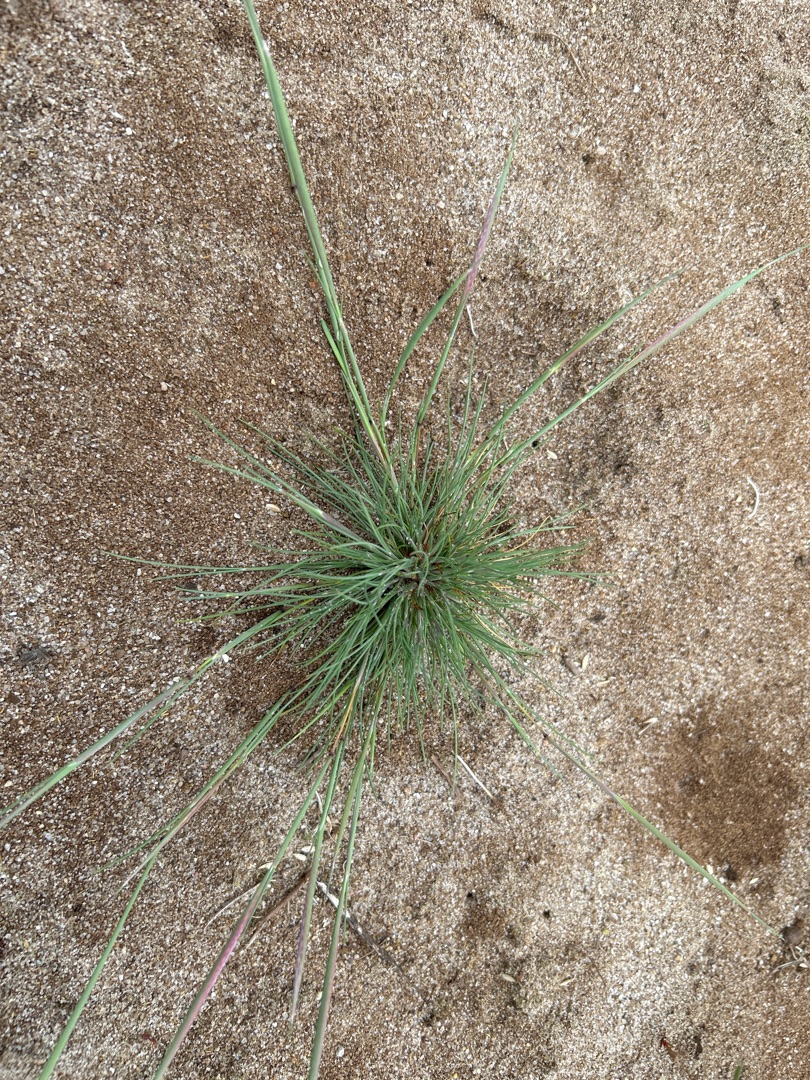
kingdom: Plantae
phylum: Tracheophyta
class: Liliopsida
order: Poales
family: Poaceae
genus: Corynephorus
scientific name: Corynephorus canescens
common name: Sandskæg
